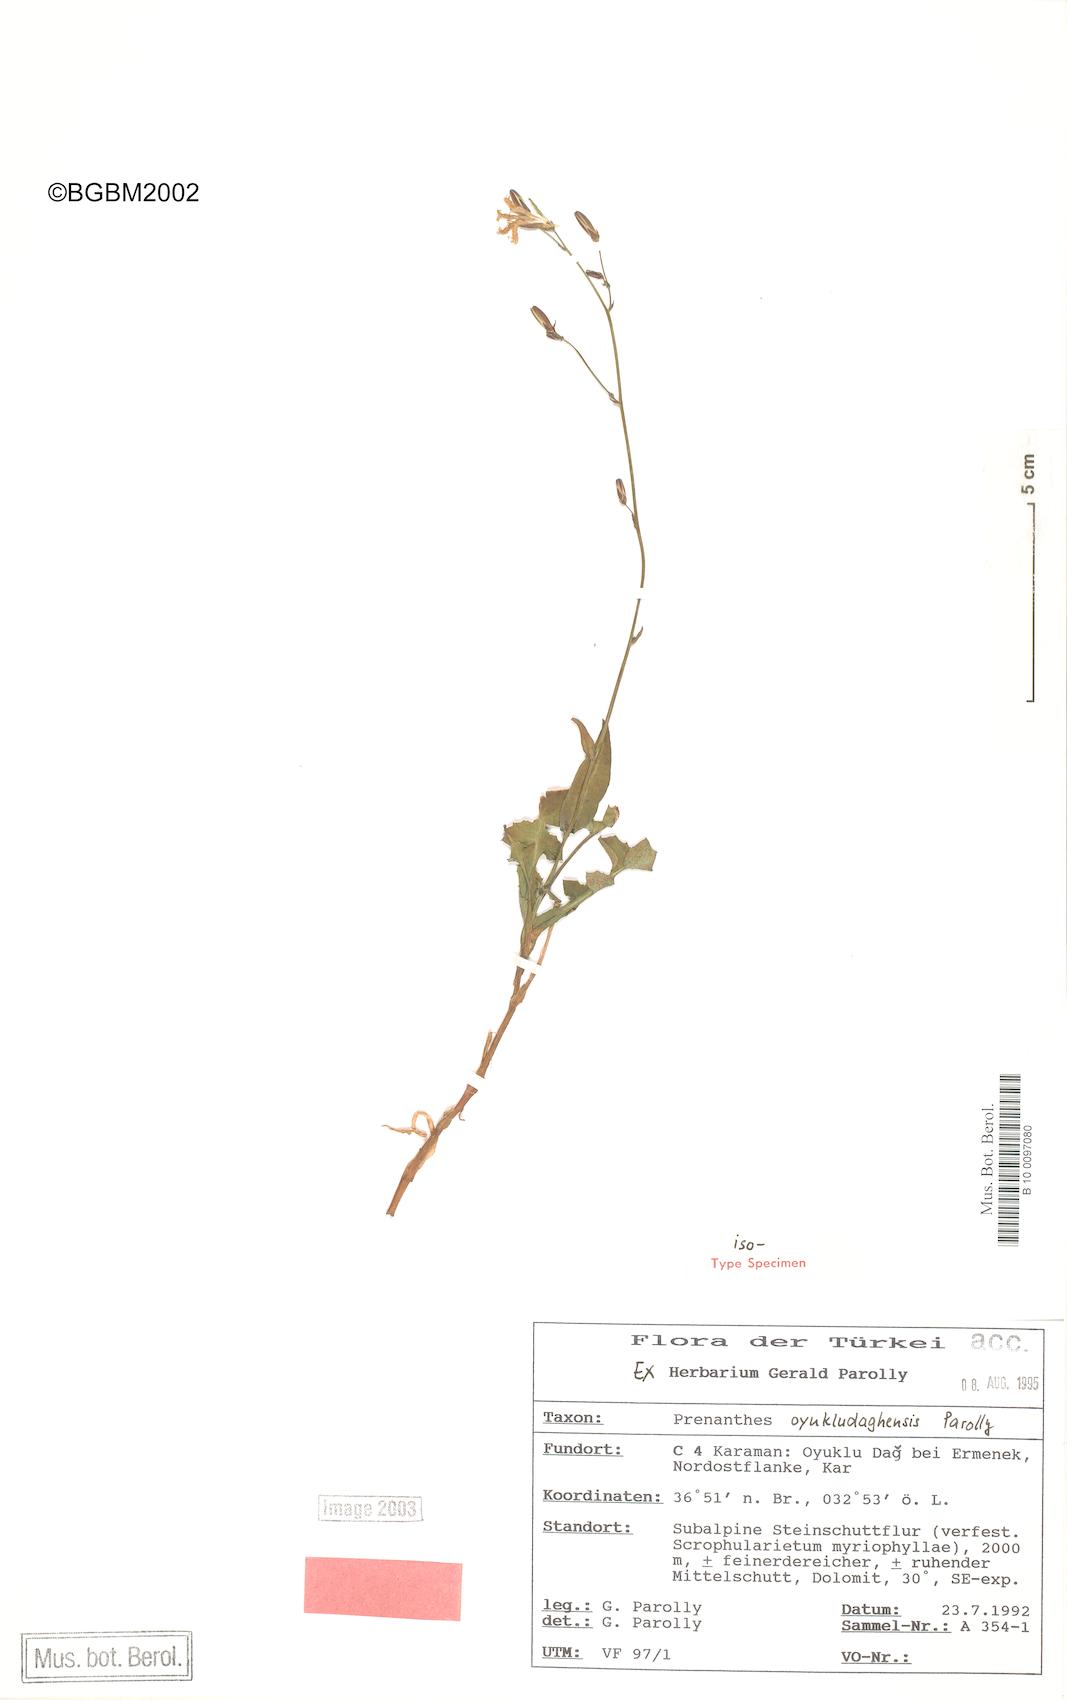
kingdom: Plantae
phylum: Tracheophyta
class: Magnoliopsida
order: Asterales
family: Asteraceae
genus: Lactuca
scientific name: Lactuca oyukludaghensis
